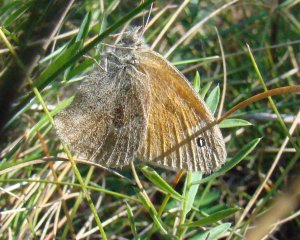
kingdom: Animalia
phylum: Arthropoda
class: Insecta
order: Lepidoptera
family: Nymphalidae
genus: Coenonympha
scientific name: Coenonympha tullia
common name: Large Heath
